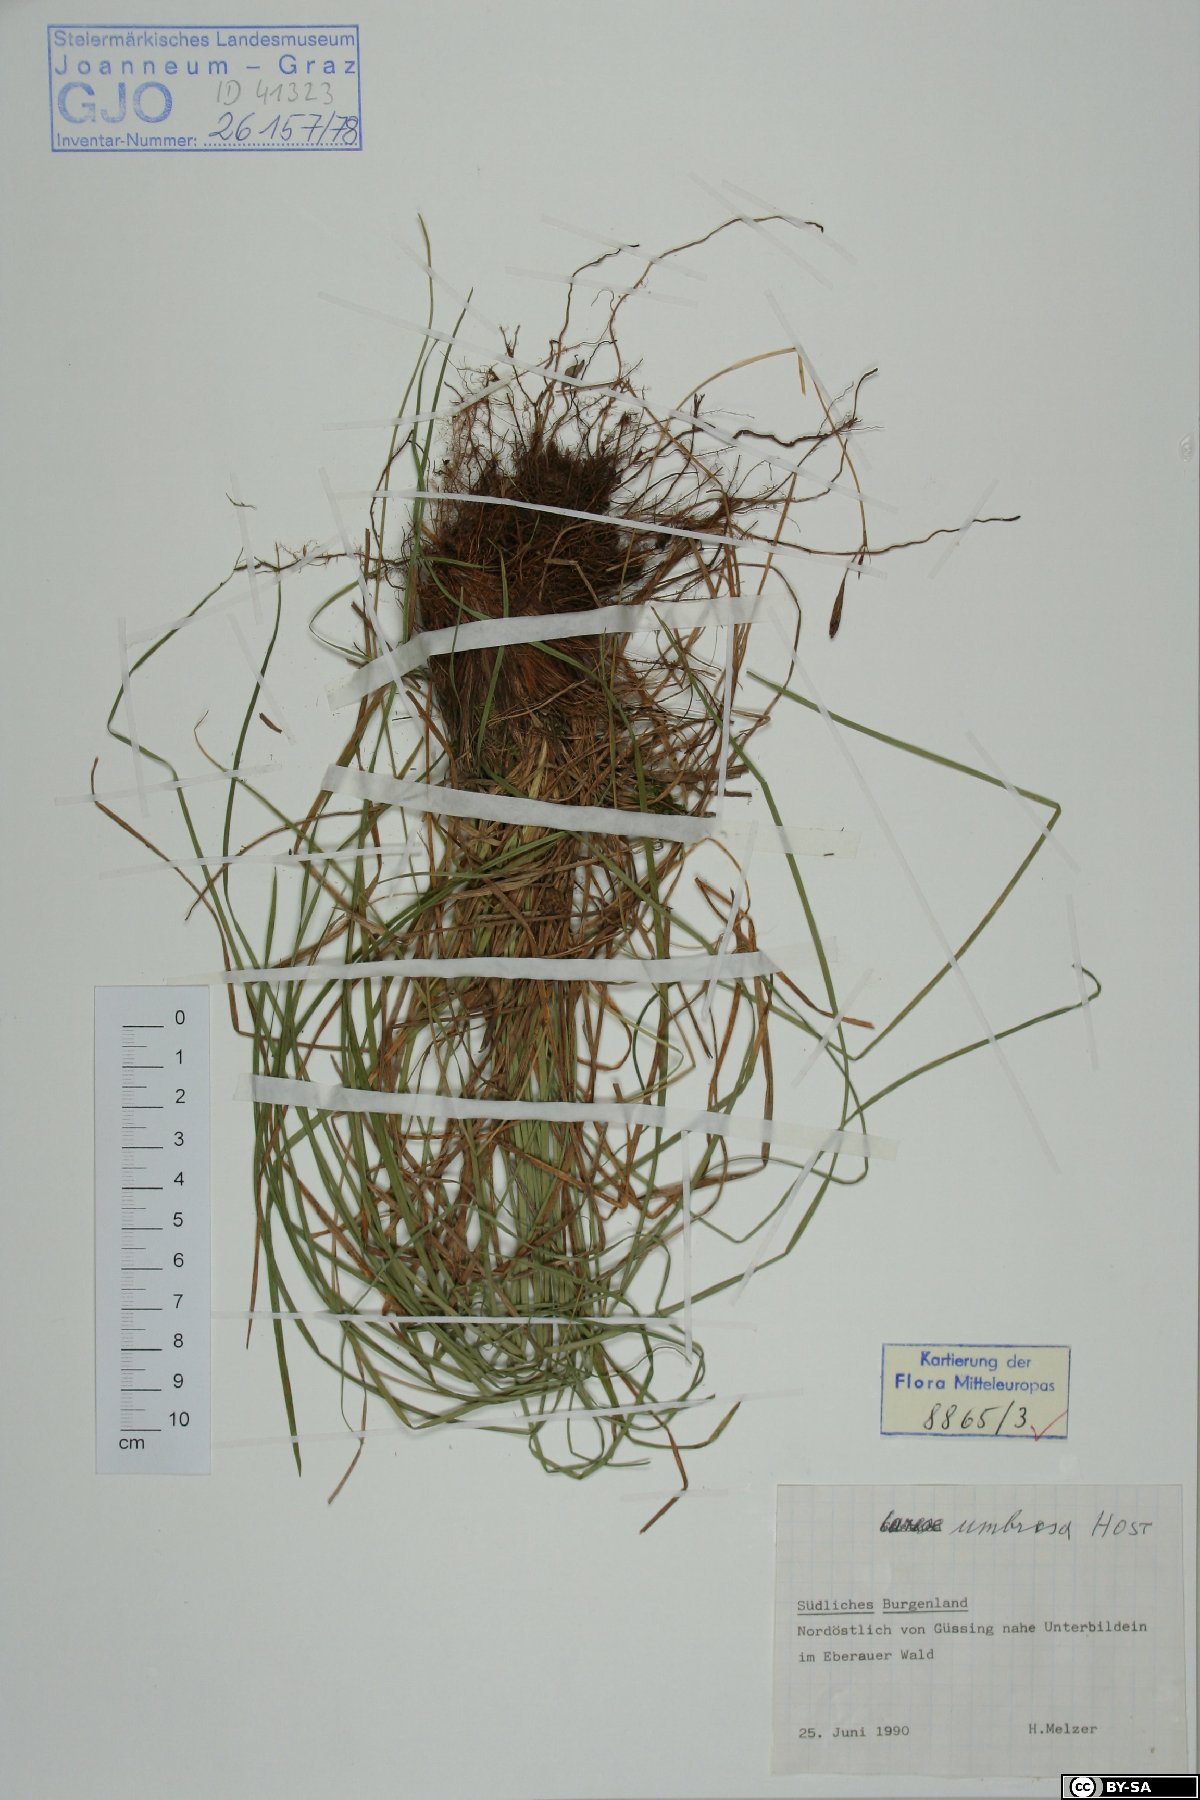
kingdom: Plantae
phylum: Tracheophyta
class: Liliopsida
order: Poales
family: Cyperaceae
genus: Carex
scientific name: Carex umbrosa
